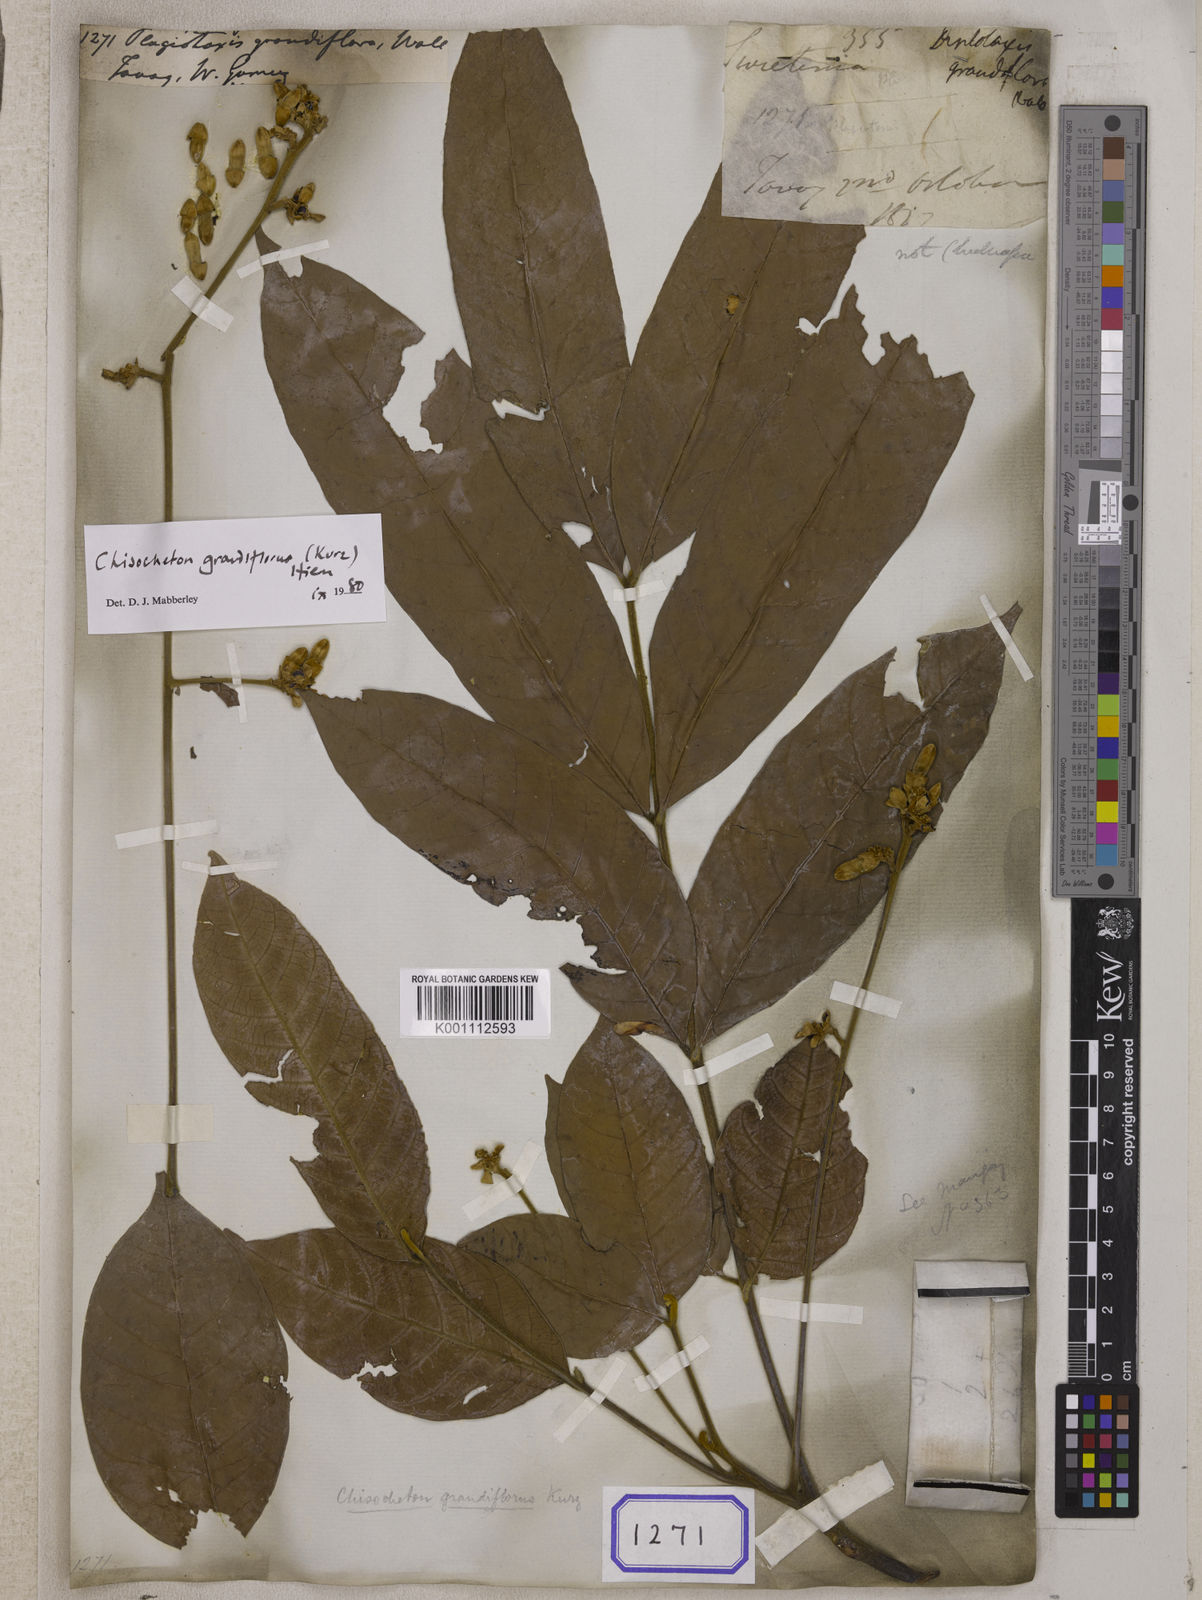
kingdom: Plantae
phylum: Tracheophyta
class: Magnoliopsida
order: Sapindales
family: Meliaceae
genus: Chisocheton
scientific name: Chisocheton grandiflorus
